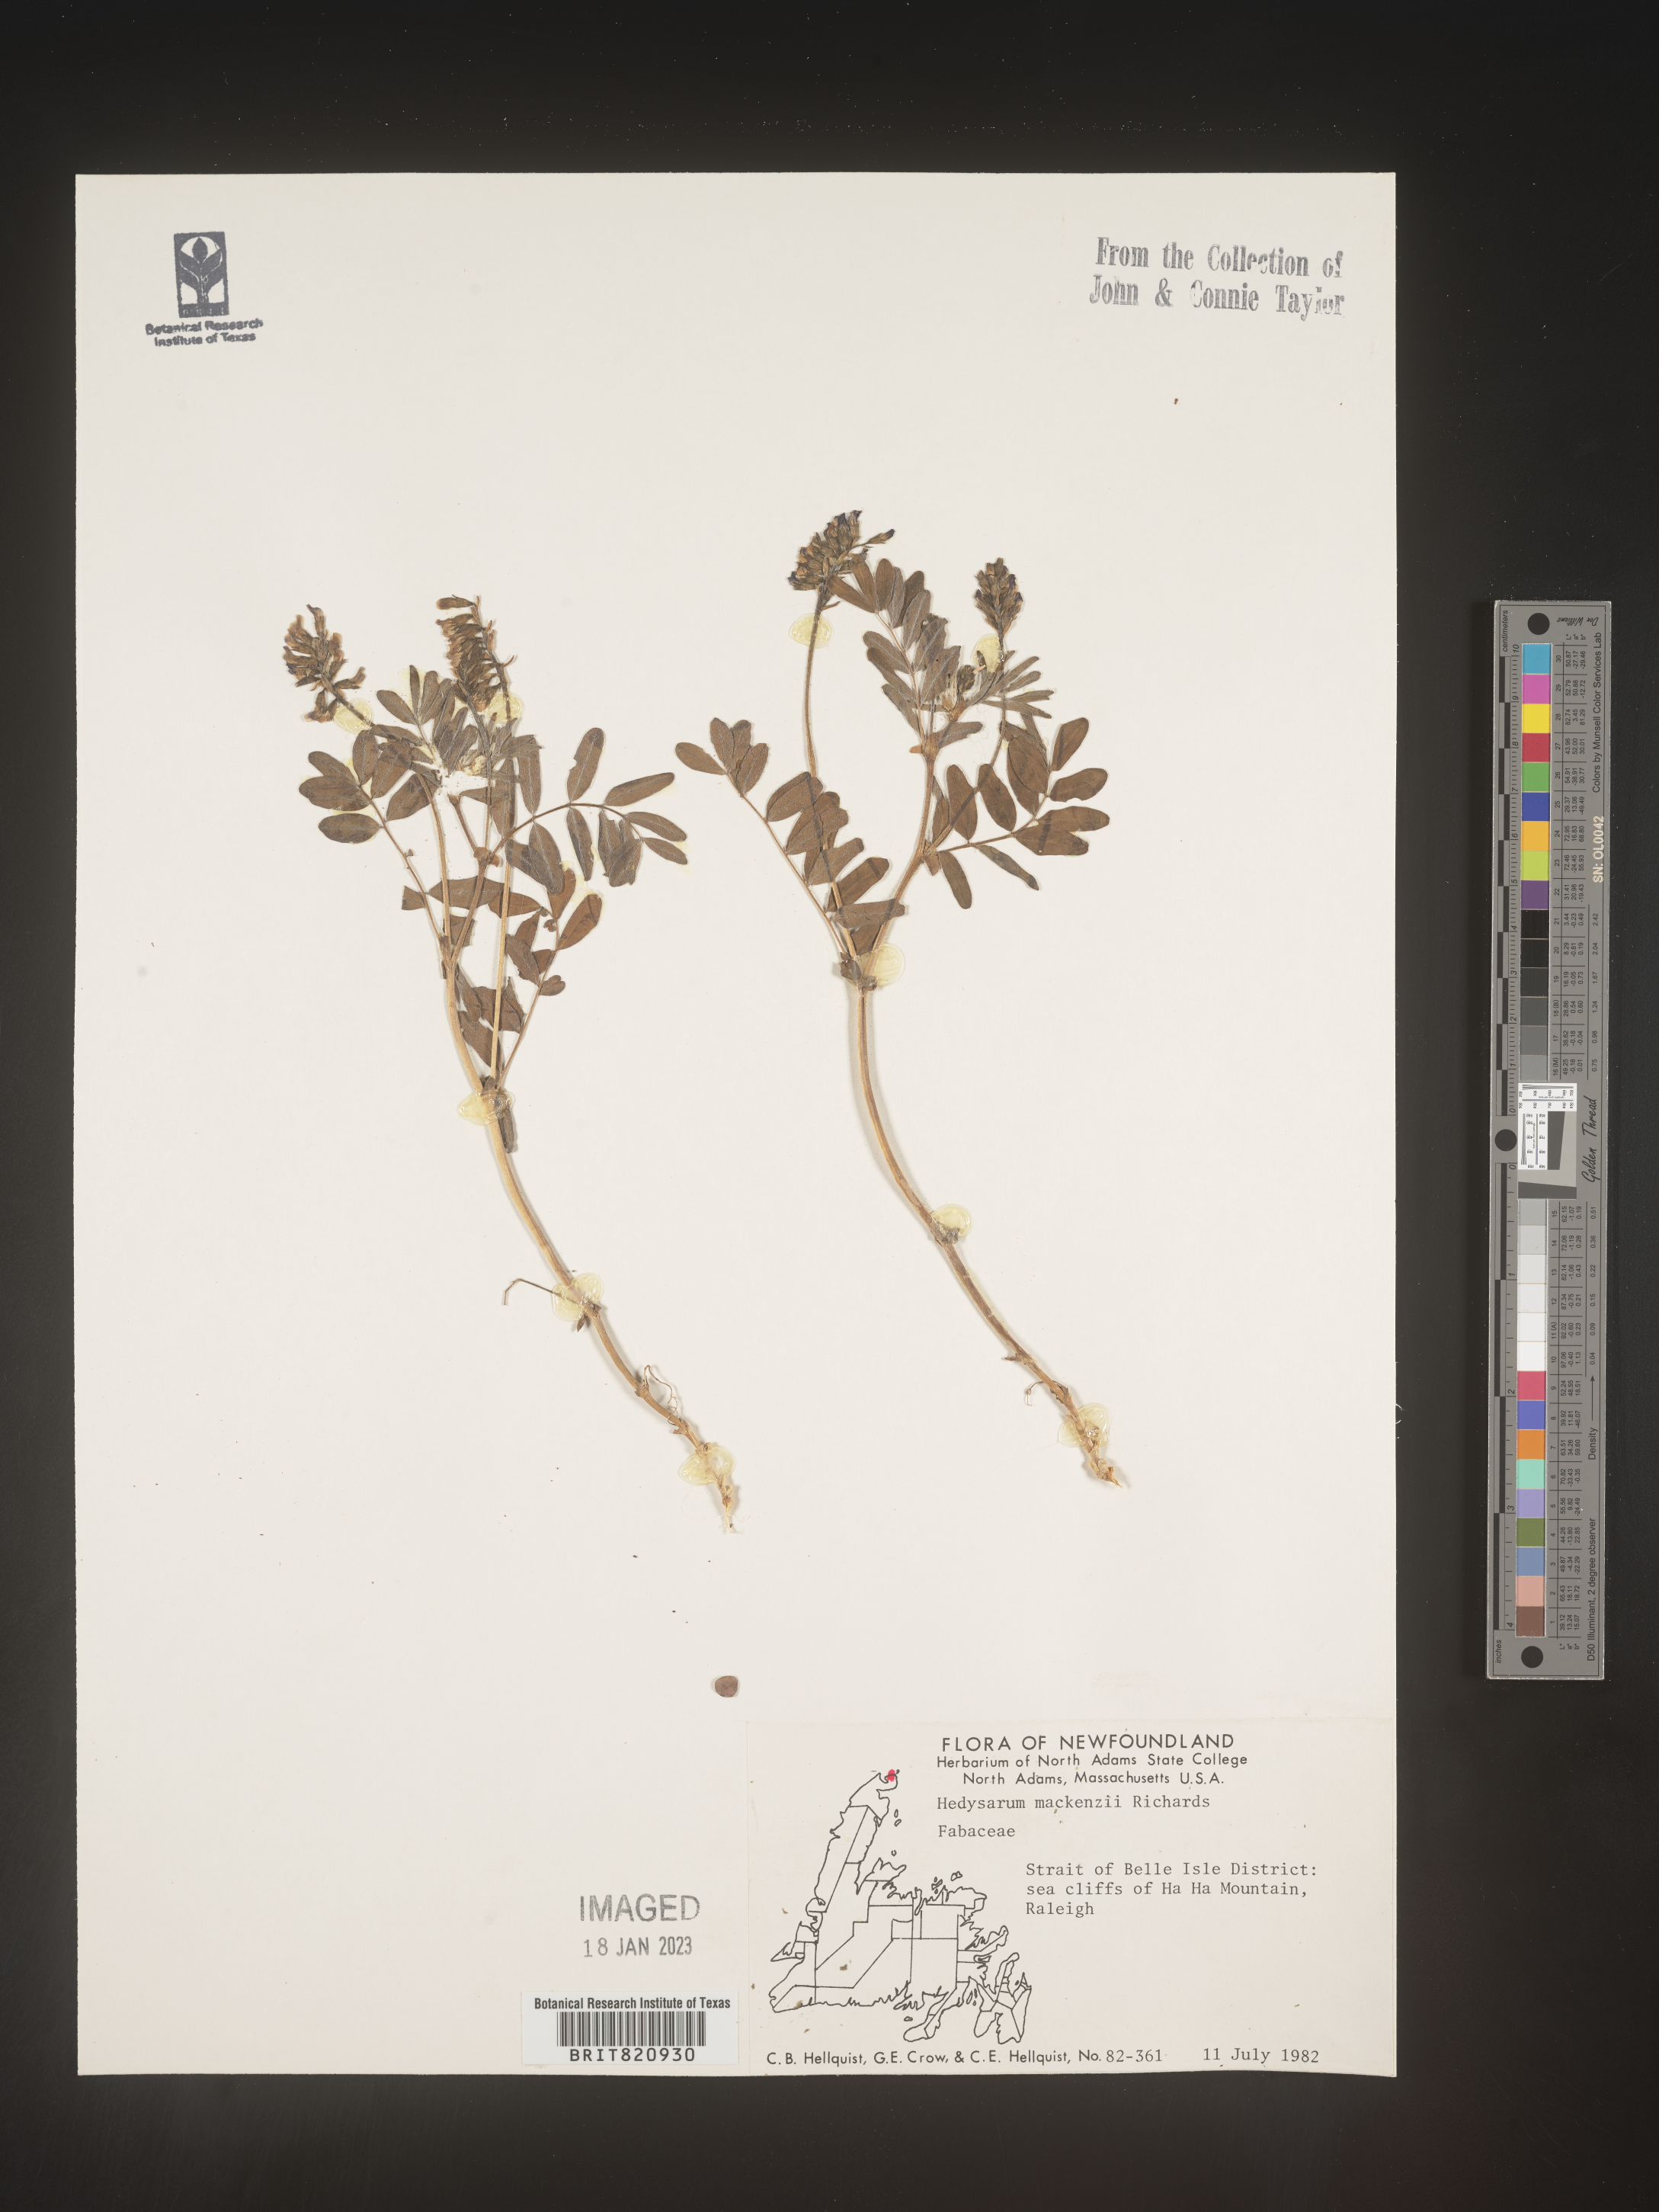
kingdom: Plantae
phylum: Tracheophyta
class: Magnoliopsida
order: Fabales
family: Fabaceae
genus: Hedysarum
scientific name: Hedysarum boreale
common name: Northern sweet-vetch
